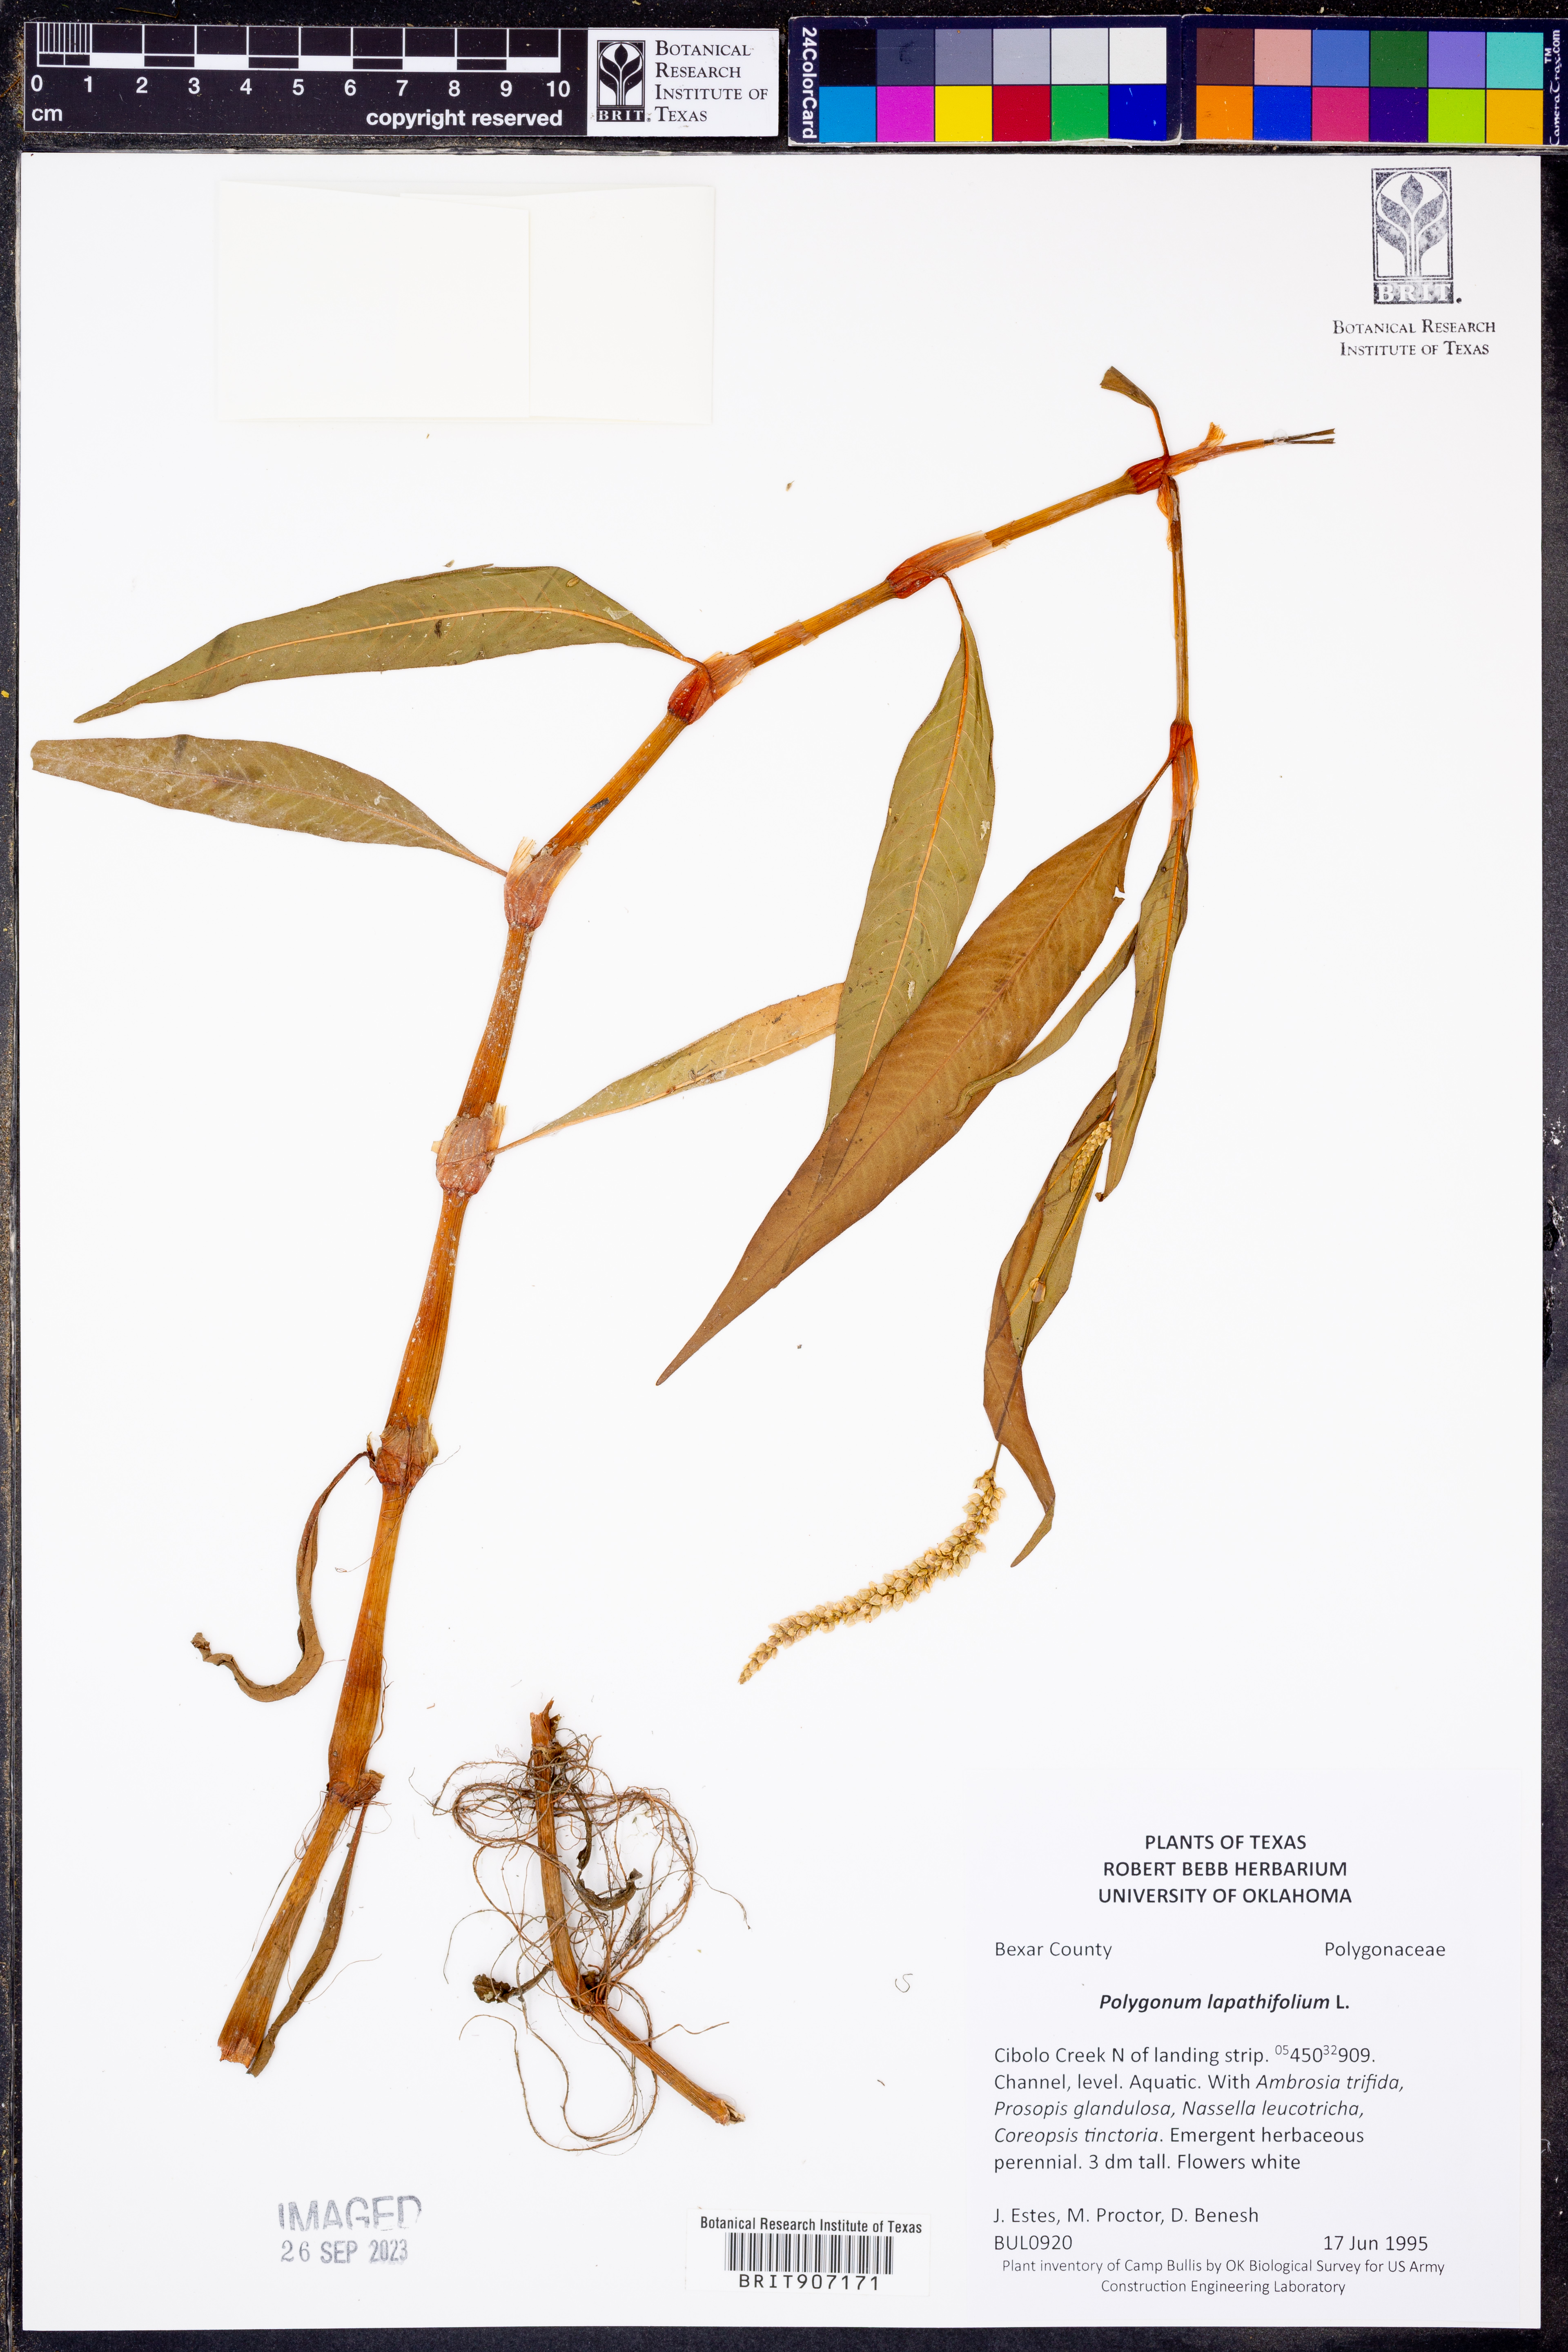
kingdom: Plantae
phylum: Tracheophyta
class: Magnoliopsida
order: Caryophyllales
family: Polygonaceae
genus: Persicaria
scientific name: Persicaria lapathifolia
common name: Curlytop knotweed
